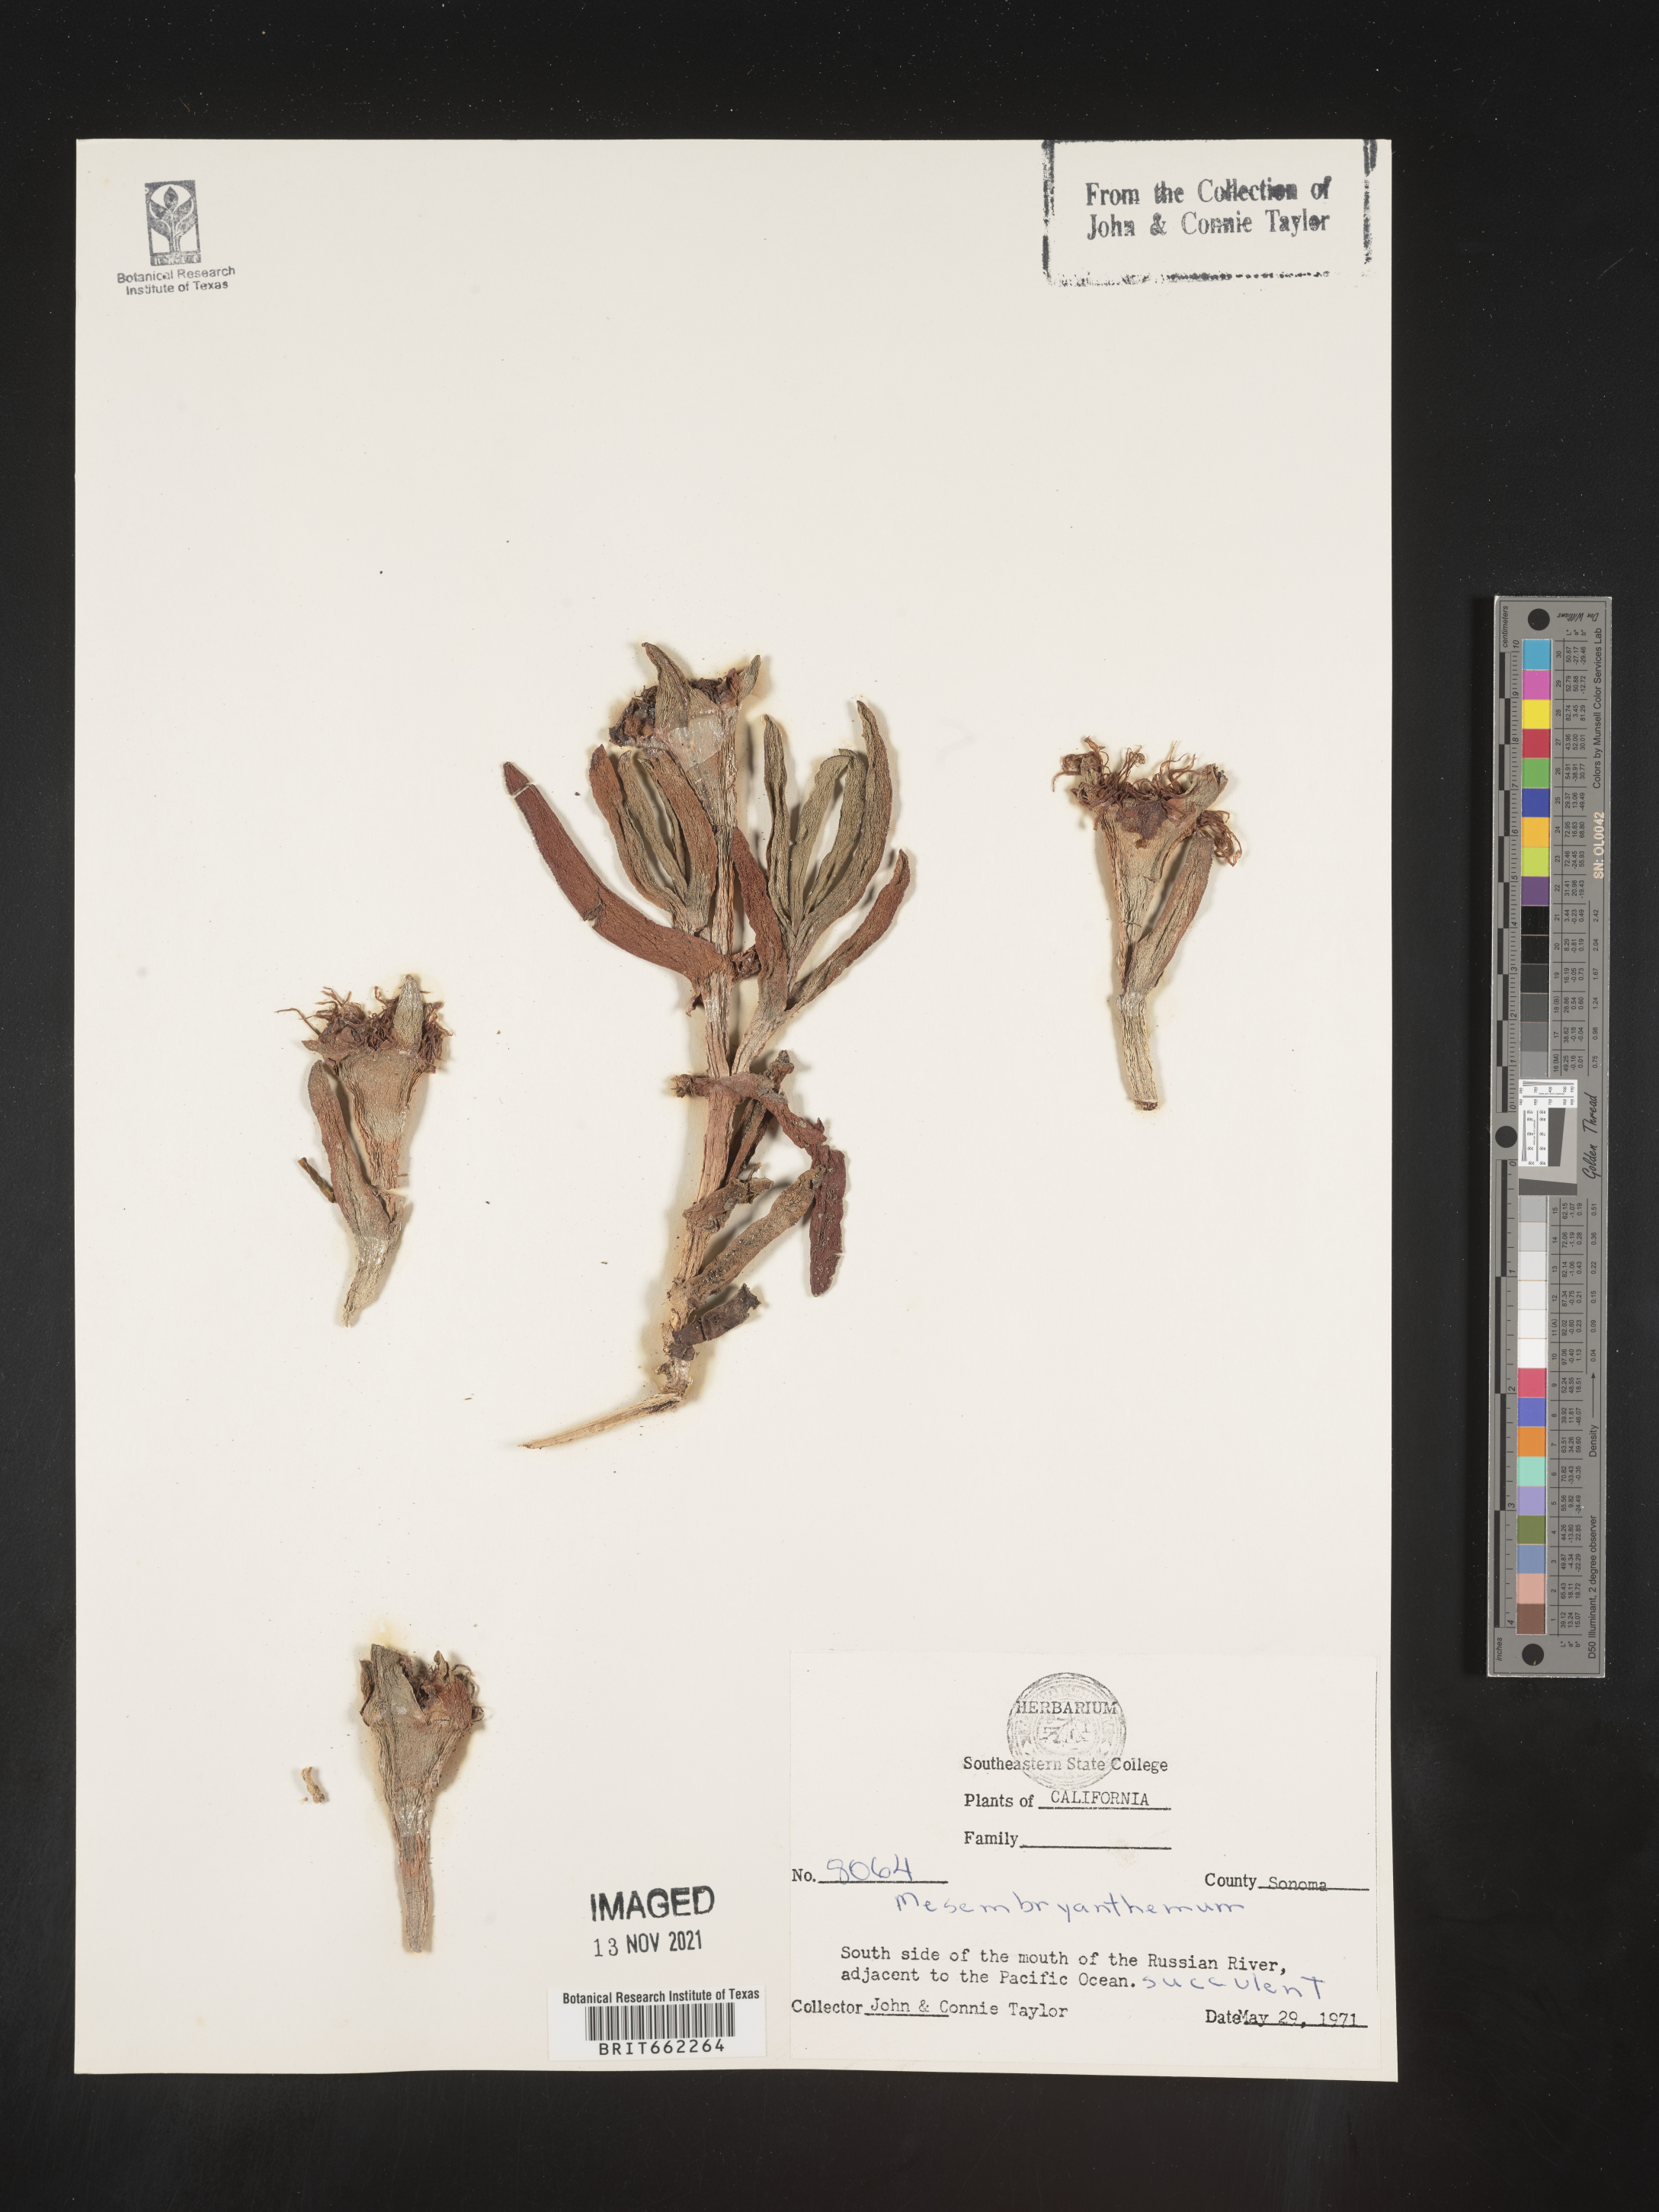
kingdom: Plantae
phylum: Tracheophyta
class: Magnoliopsida
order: Caryophyllales
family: Aizoaceae
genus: Mesembryanthemum
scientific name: Mesembryanthemum
